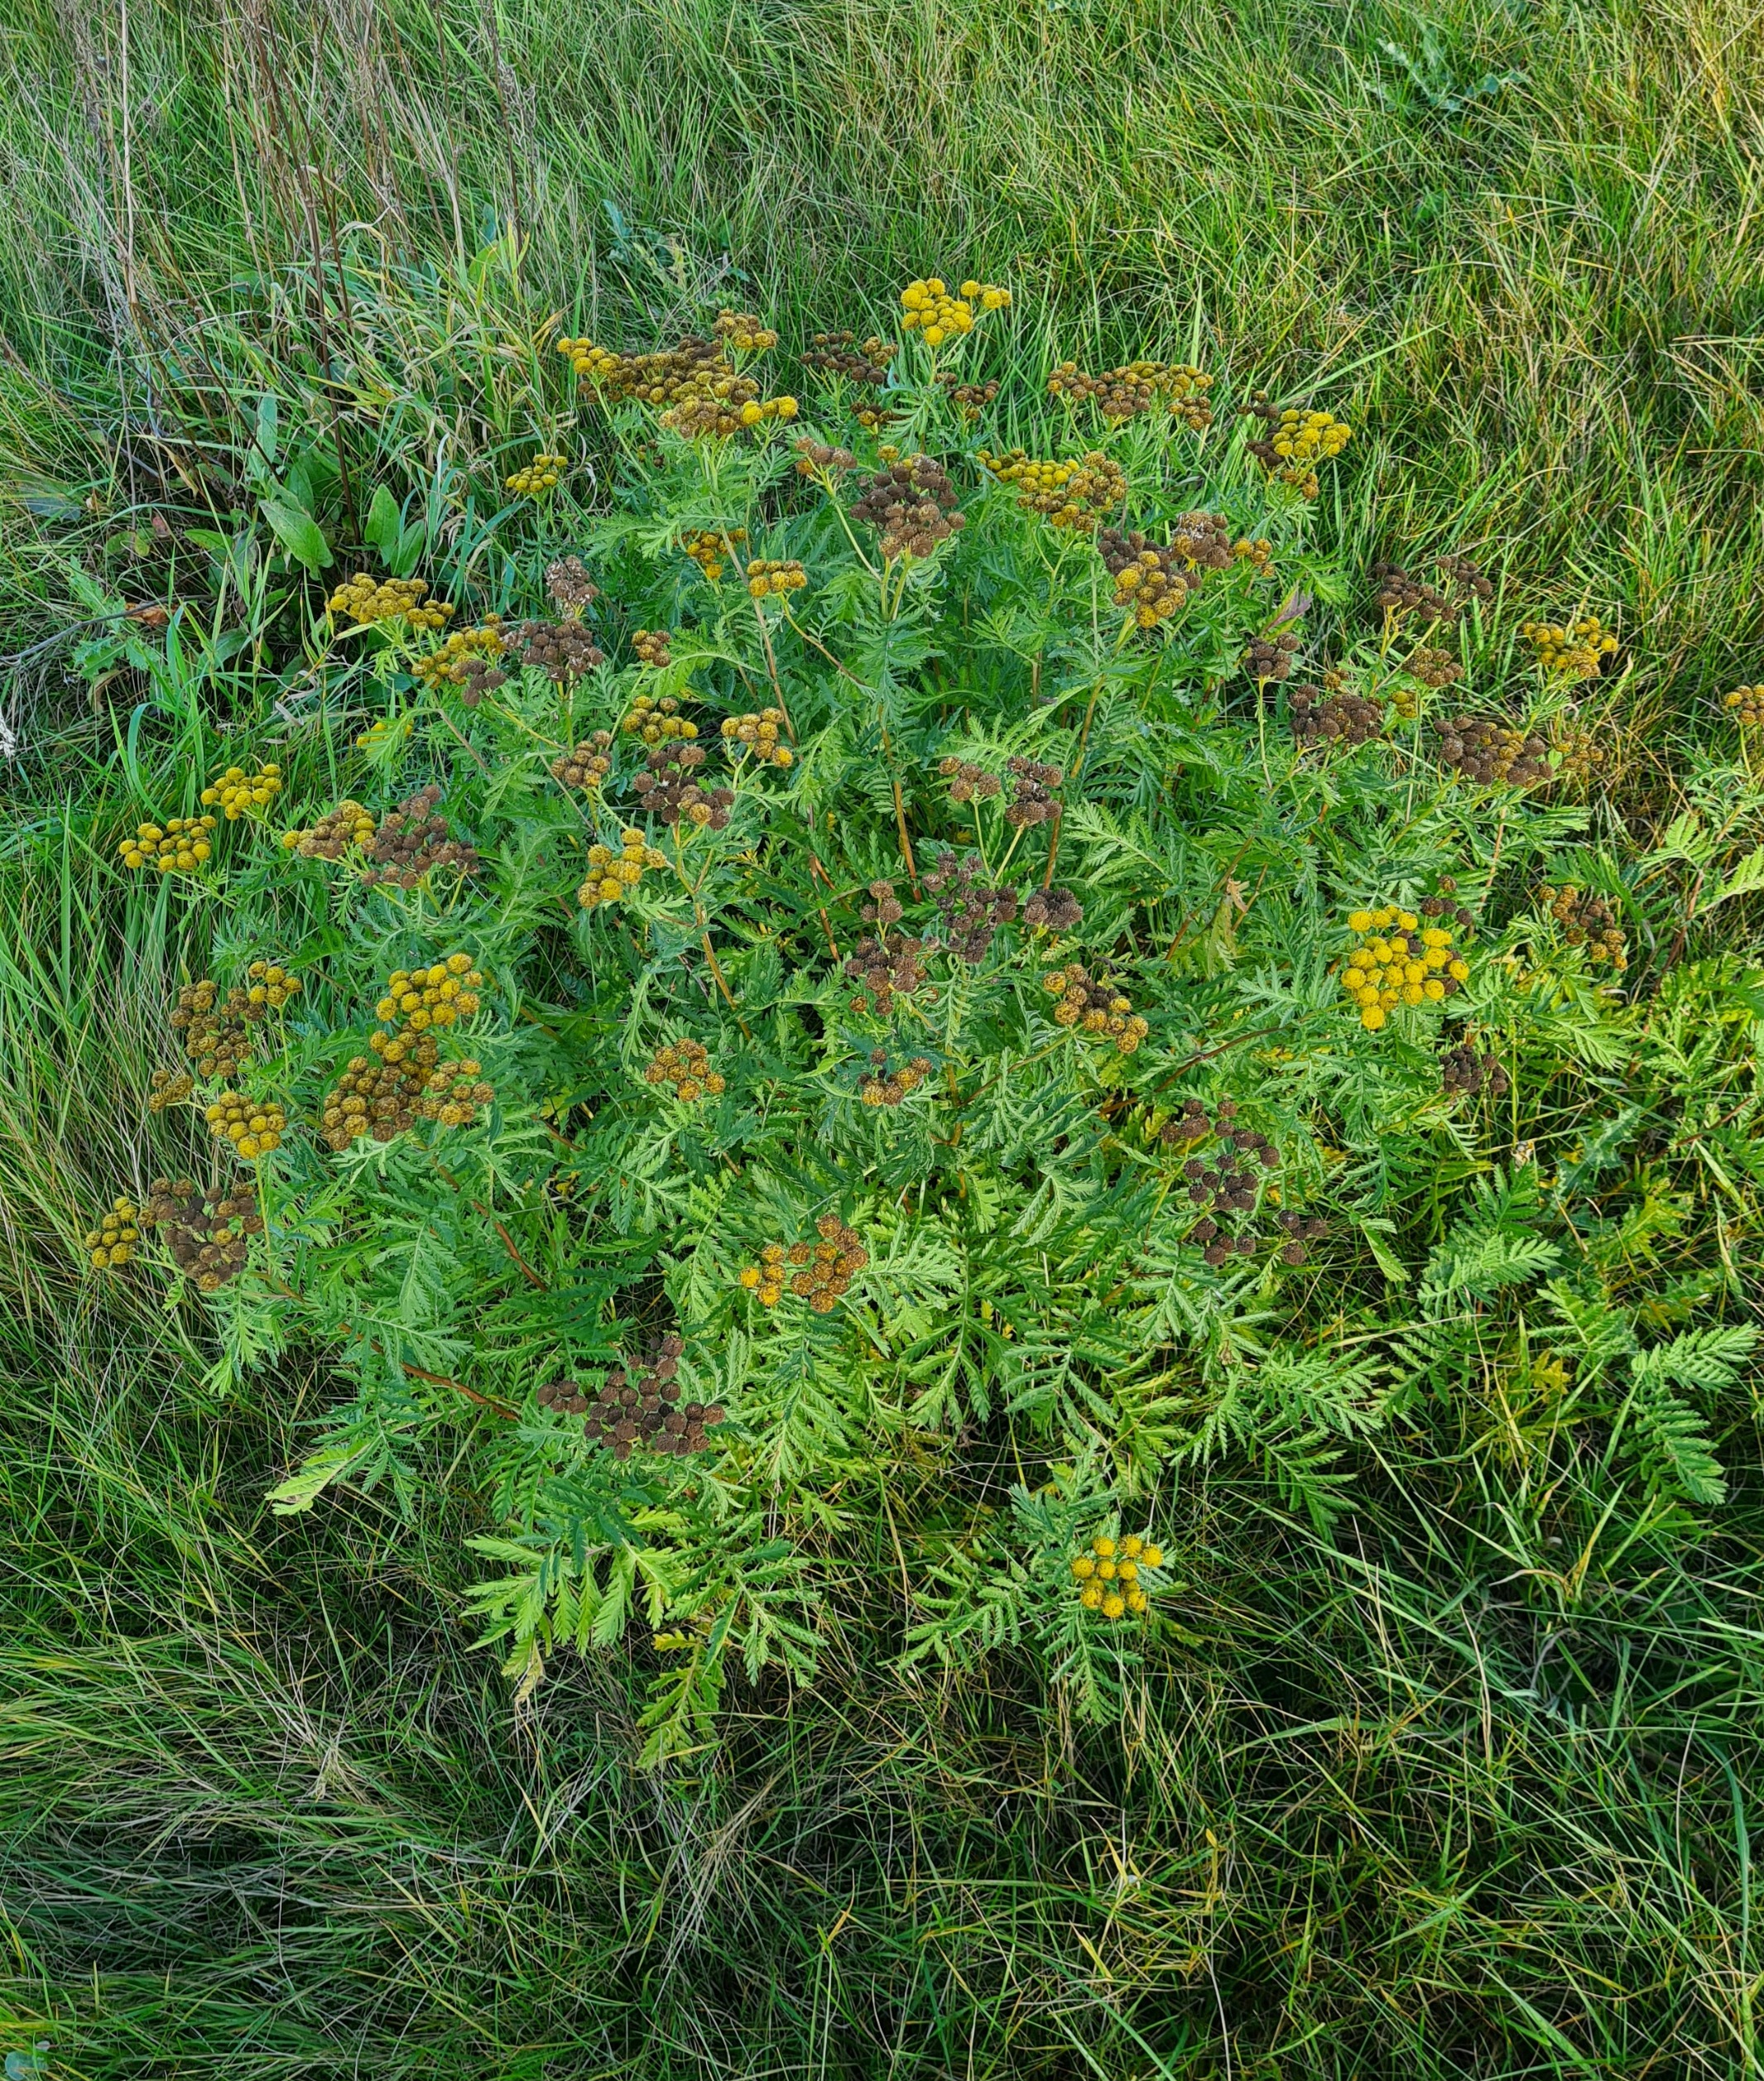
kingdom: Plantae
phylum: Tracheophyta
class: Magnoliopsida
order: Asterales
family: Asteraceae
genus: Tanacetum
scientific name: Tanacetum vulgare
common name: Rejnfan
